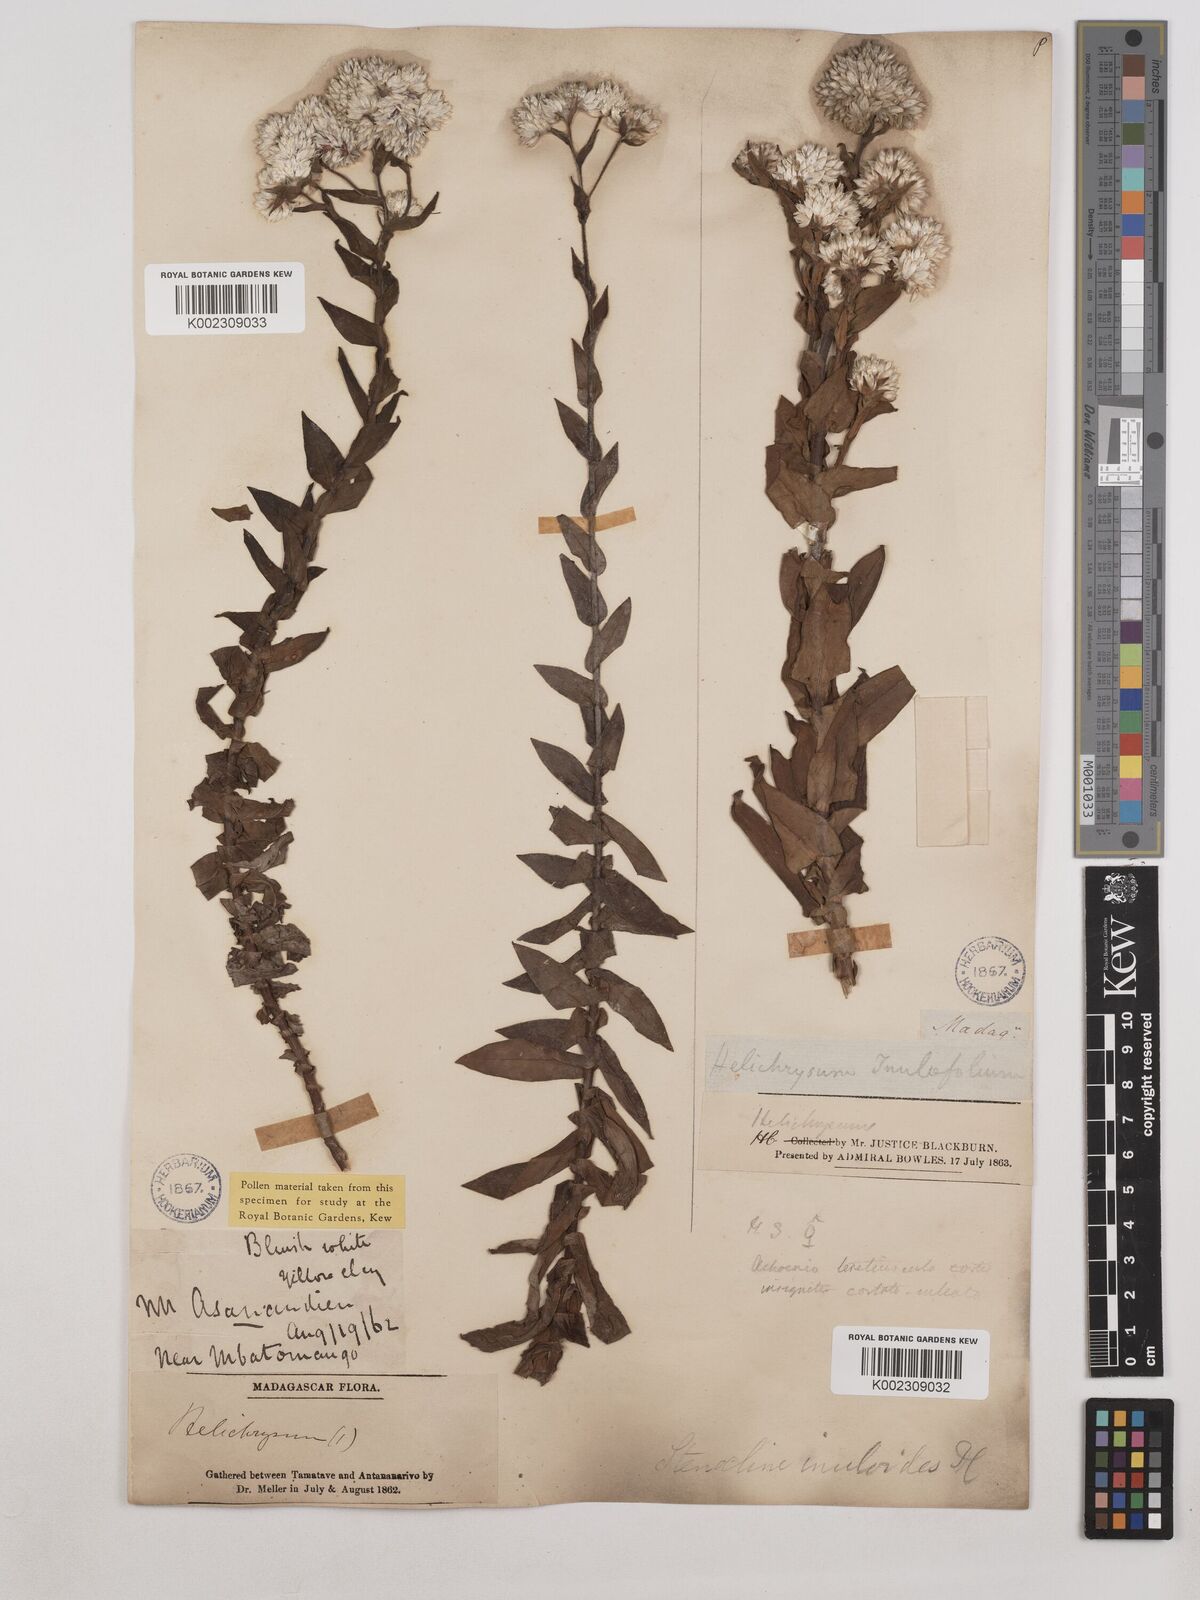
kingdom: Plantae
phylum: Tracheophyta
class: Magnoliopsida
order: Asterales
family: Asteraceae
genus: Stenocline
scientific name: Stenocline inuloides
